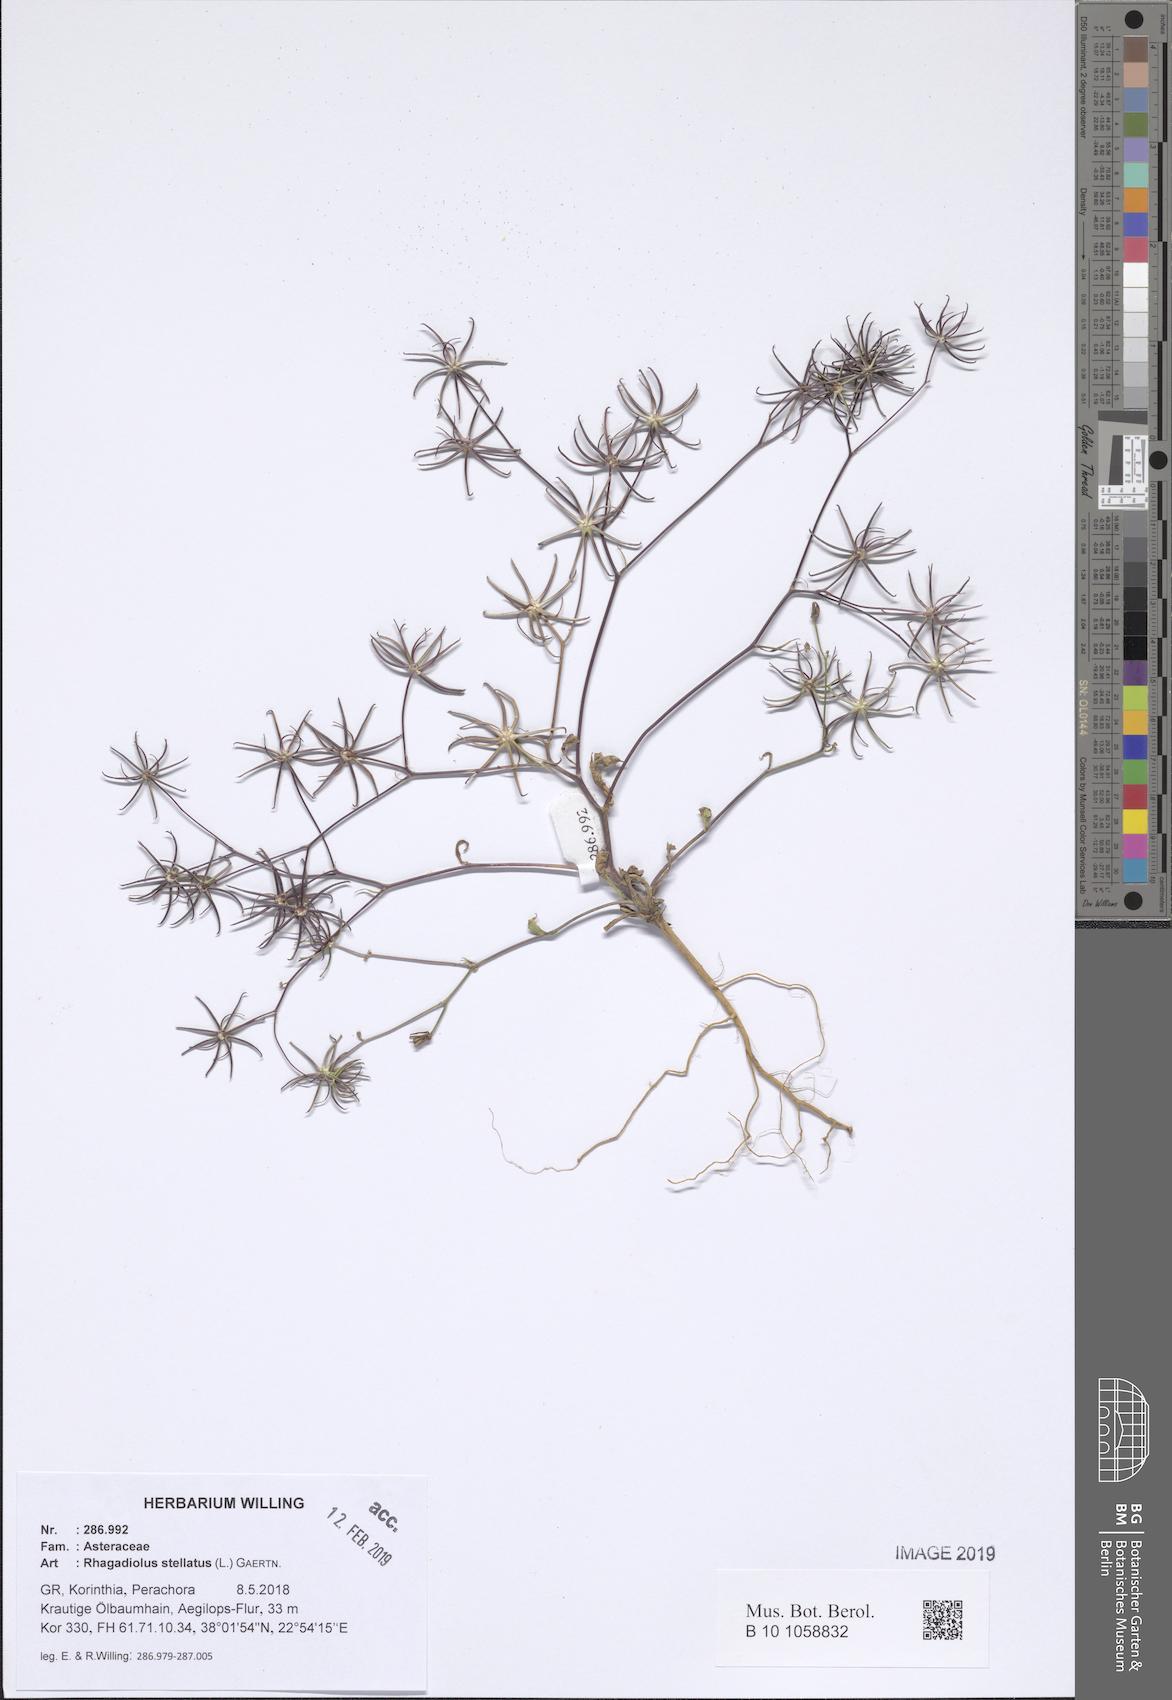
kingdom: Plantae
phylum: Tracheophyta
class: Magnoliopsida
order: Asterales
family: Asteraceae
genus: Rhagadiolus
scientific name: Rhagadiolus stellatus
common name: Star hawkbit
